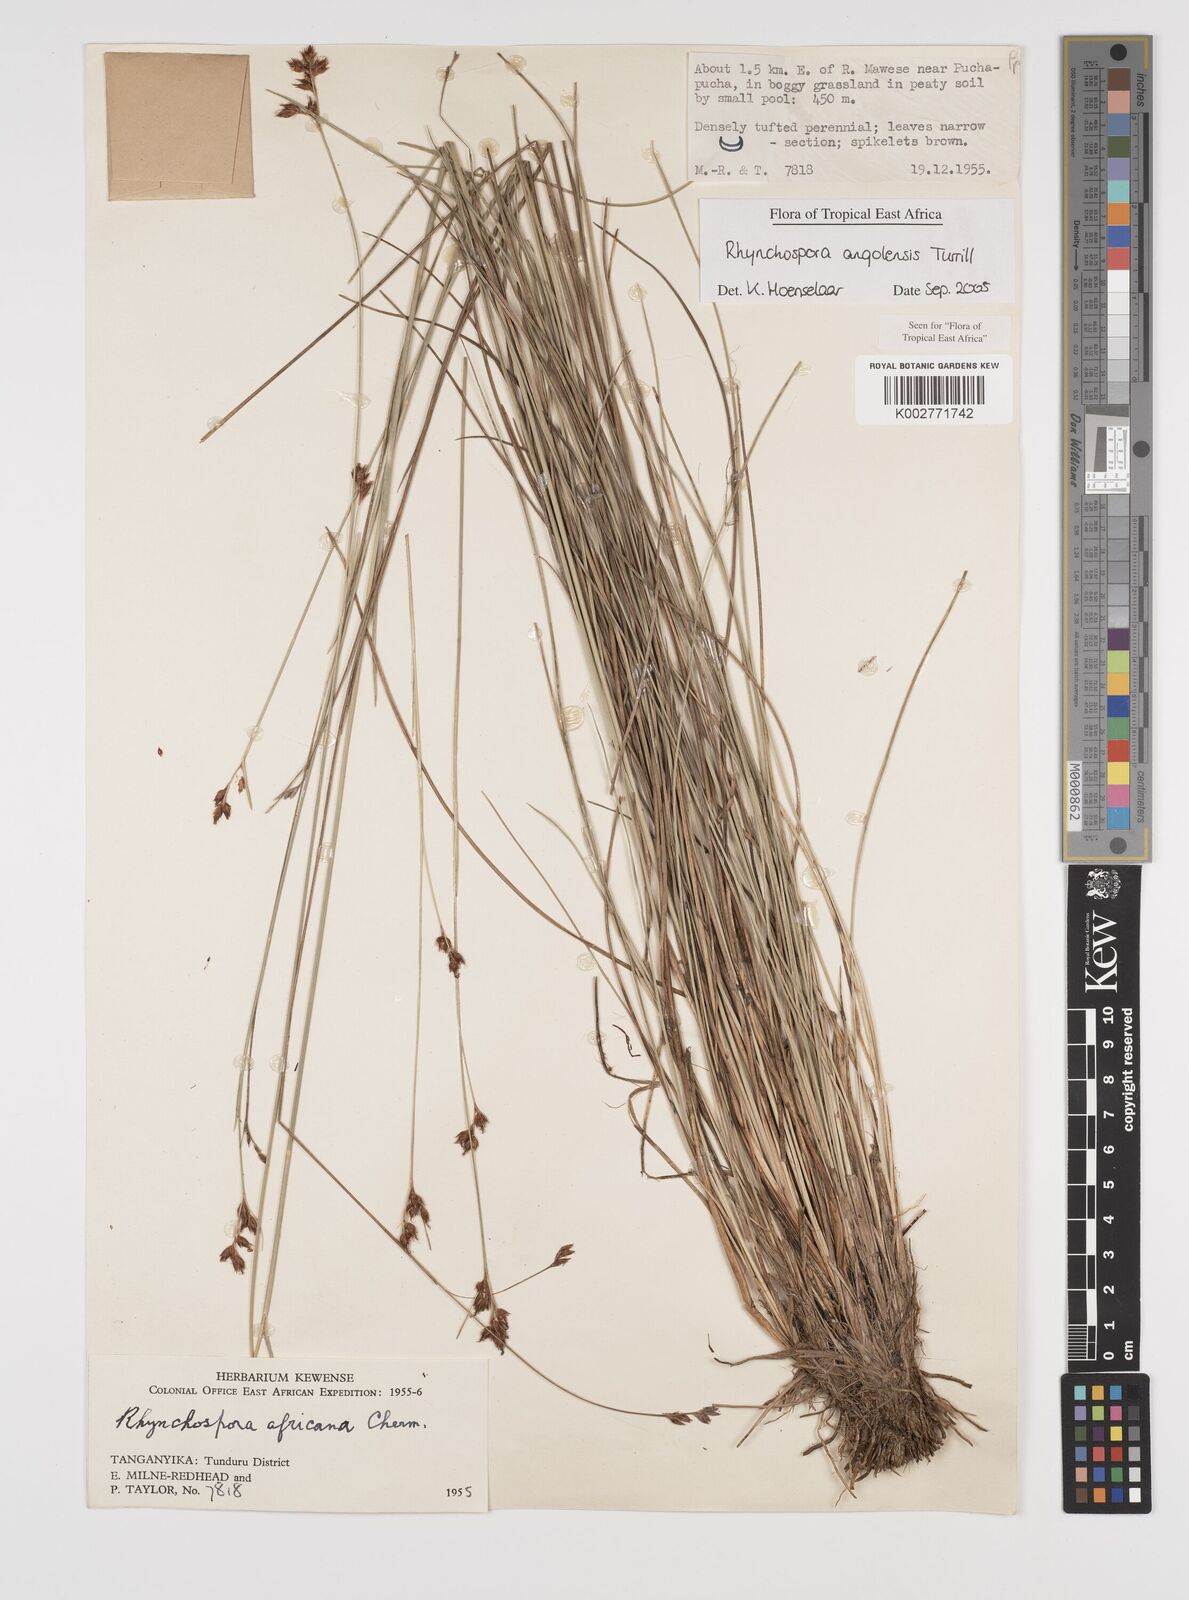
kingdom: Plantae
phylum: Tracheophyta
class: Liliopsida
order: Poales
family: Cyperaceae
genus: Rhynchospora
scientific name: Rhynchospora angolensis
